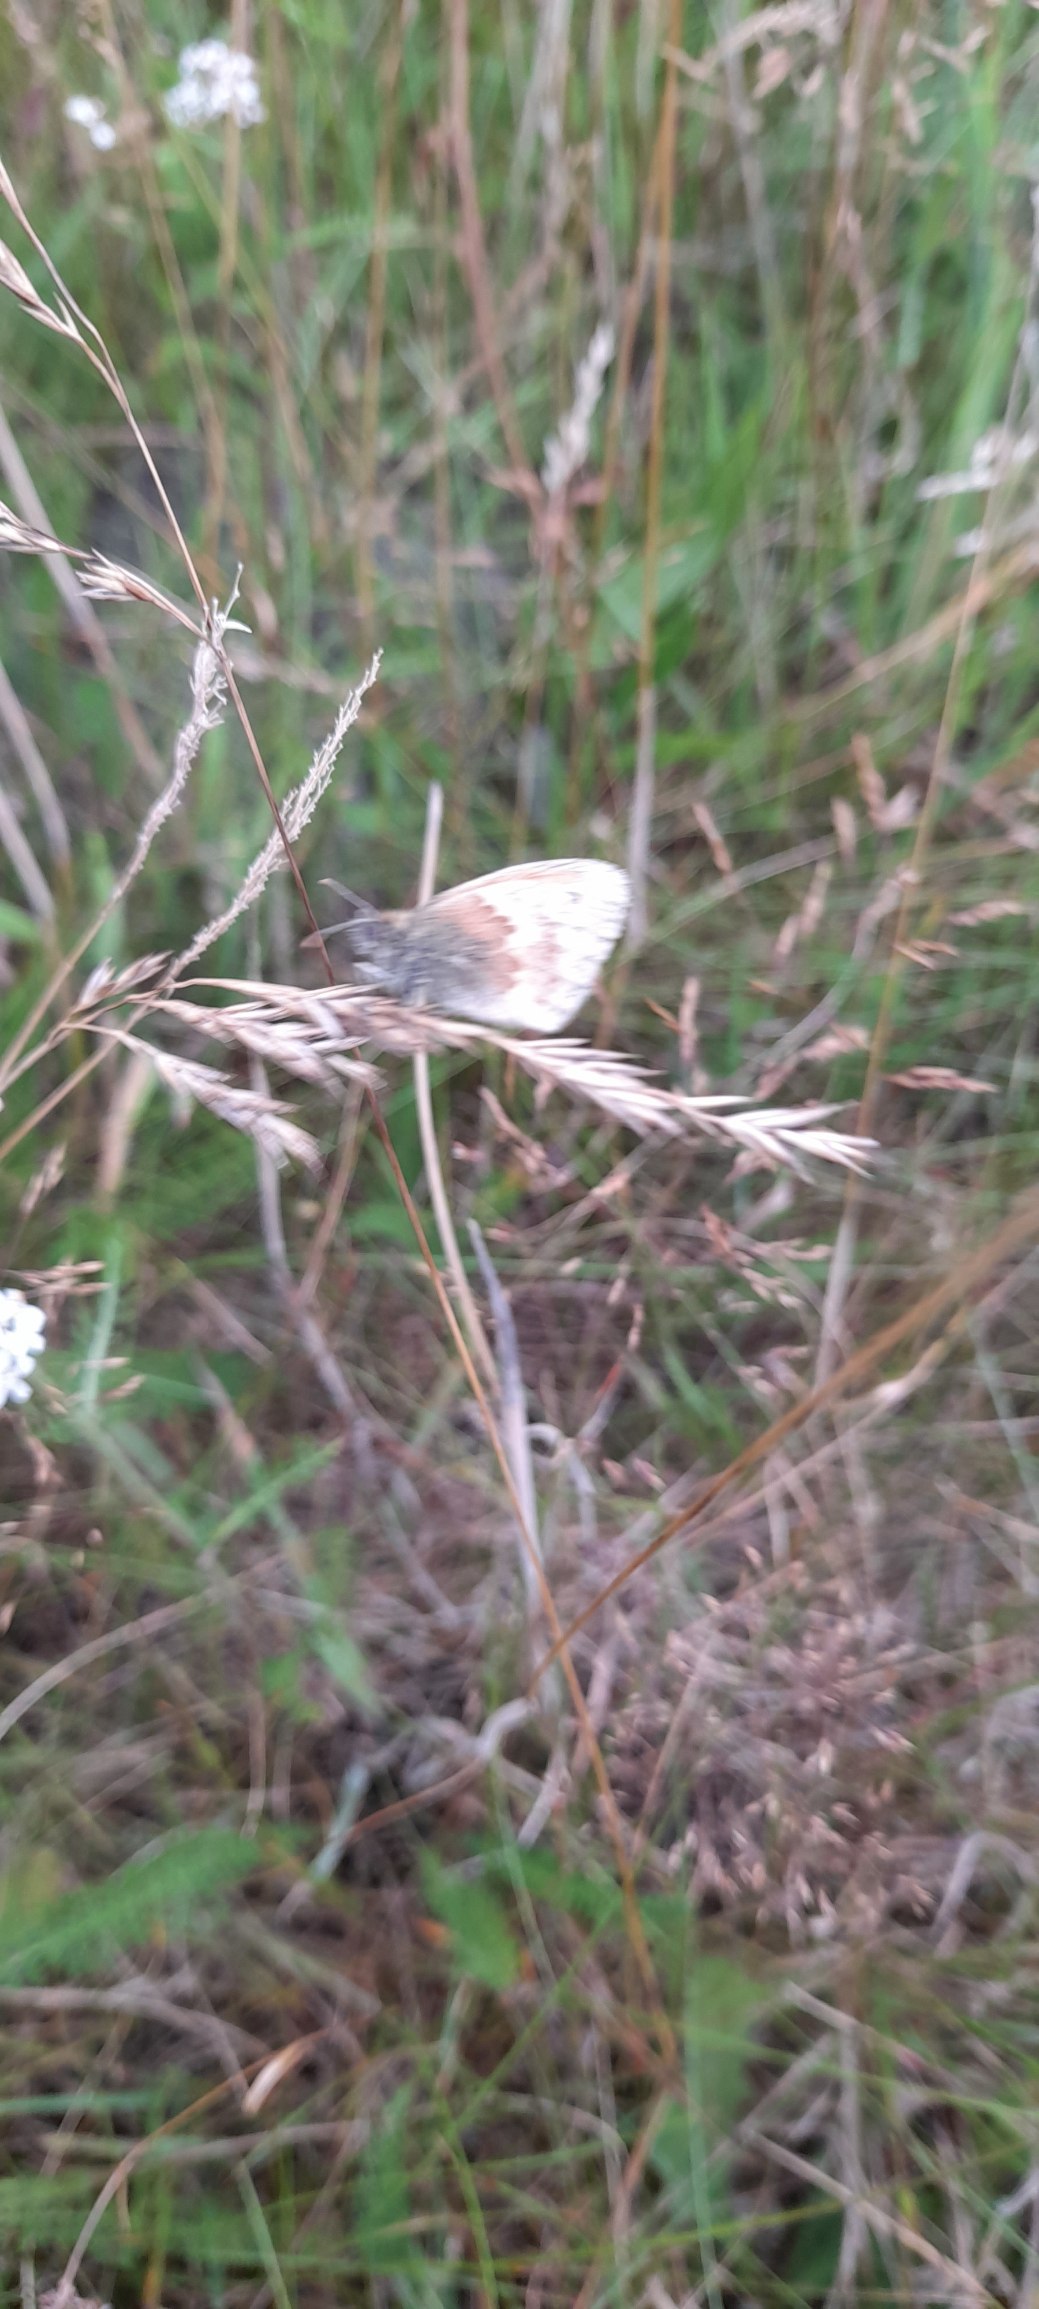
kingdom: Animalia
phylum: Arthropoda
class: Insecta
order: Lepidoptera
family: Nymphalidae
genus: Coenonympha
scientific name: Coenonympha pamphilus
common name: Okkergul randøje
